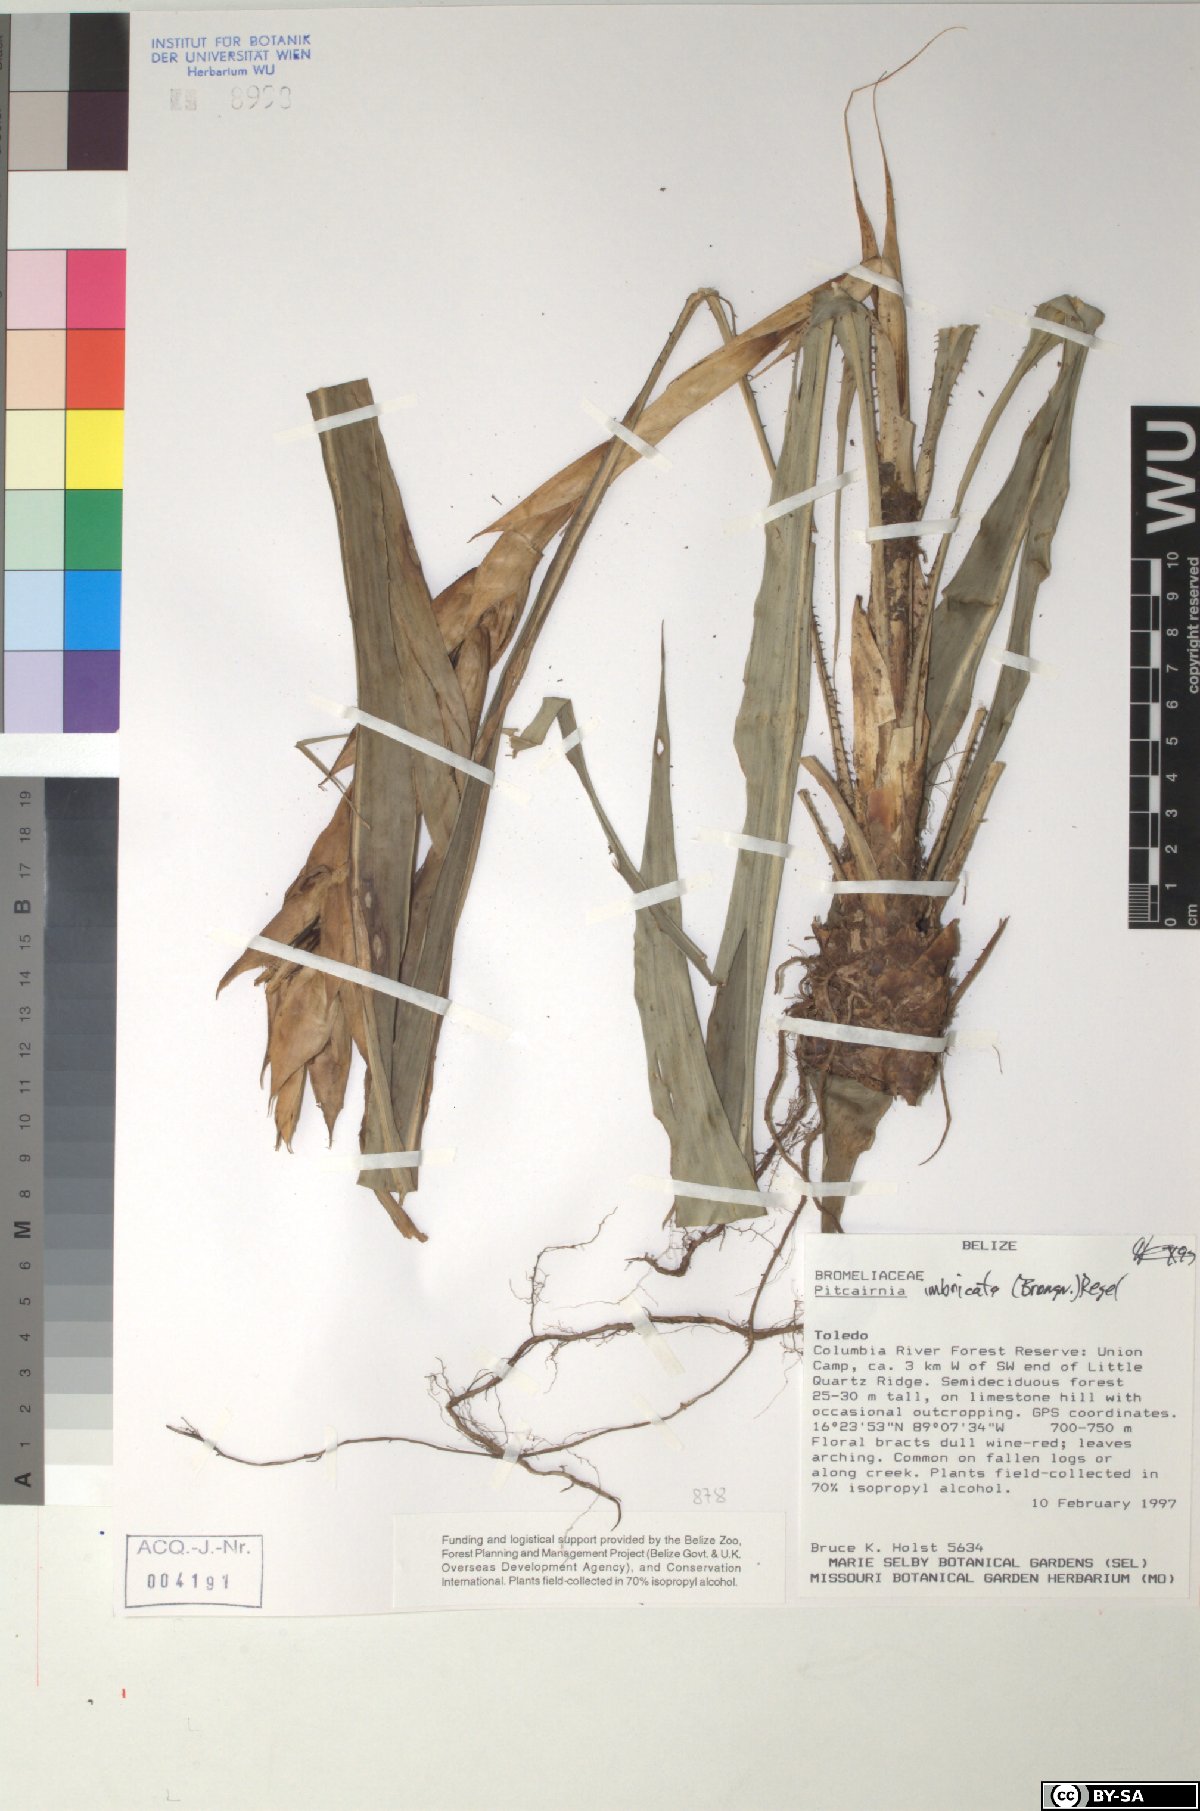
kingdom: Plantae
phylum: Tracheophyta
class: Liliopsida
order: Poales
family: Bromeliaceae
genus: Pitcairnia
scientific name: Pitcairnia imbricata
